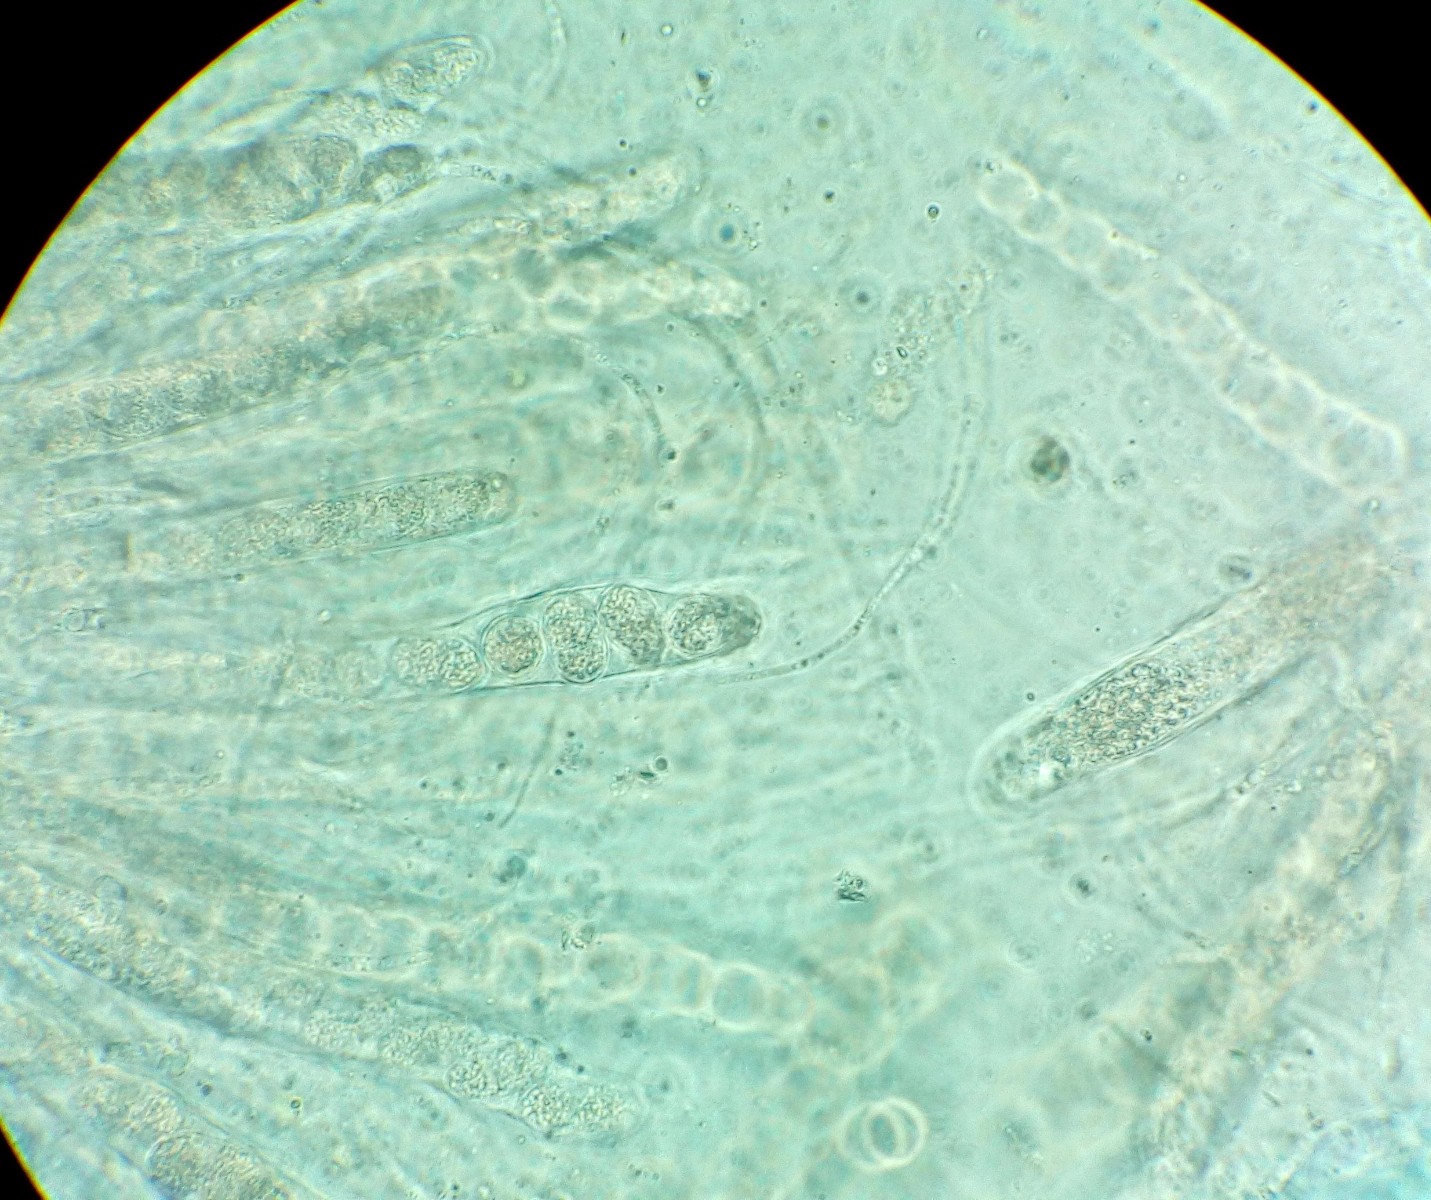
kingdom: Fungi
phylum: Ascomycota
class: Sordariomycetes
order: Phyllachorales
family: Phyllachoraceae
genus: Phyllachora
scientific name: Phyllachora dactylidis
